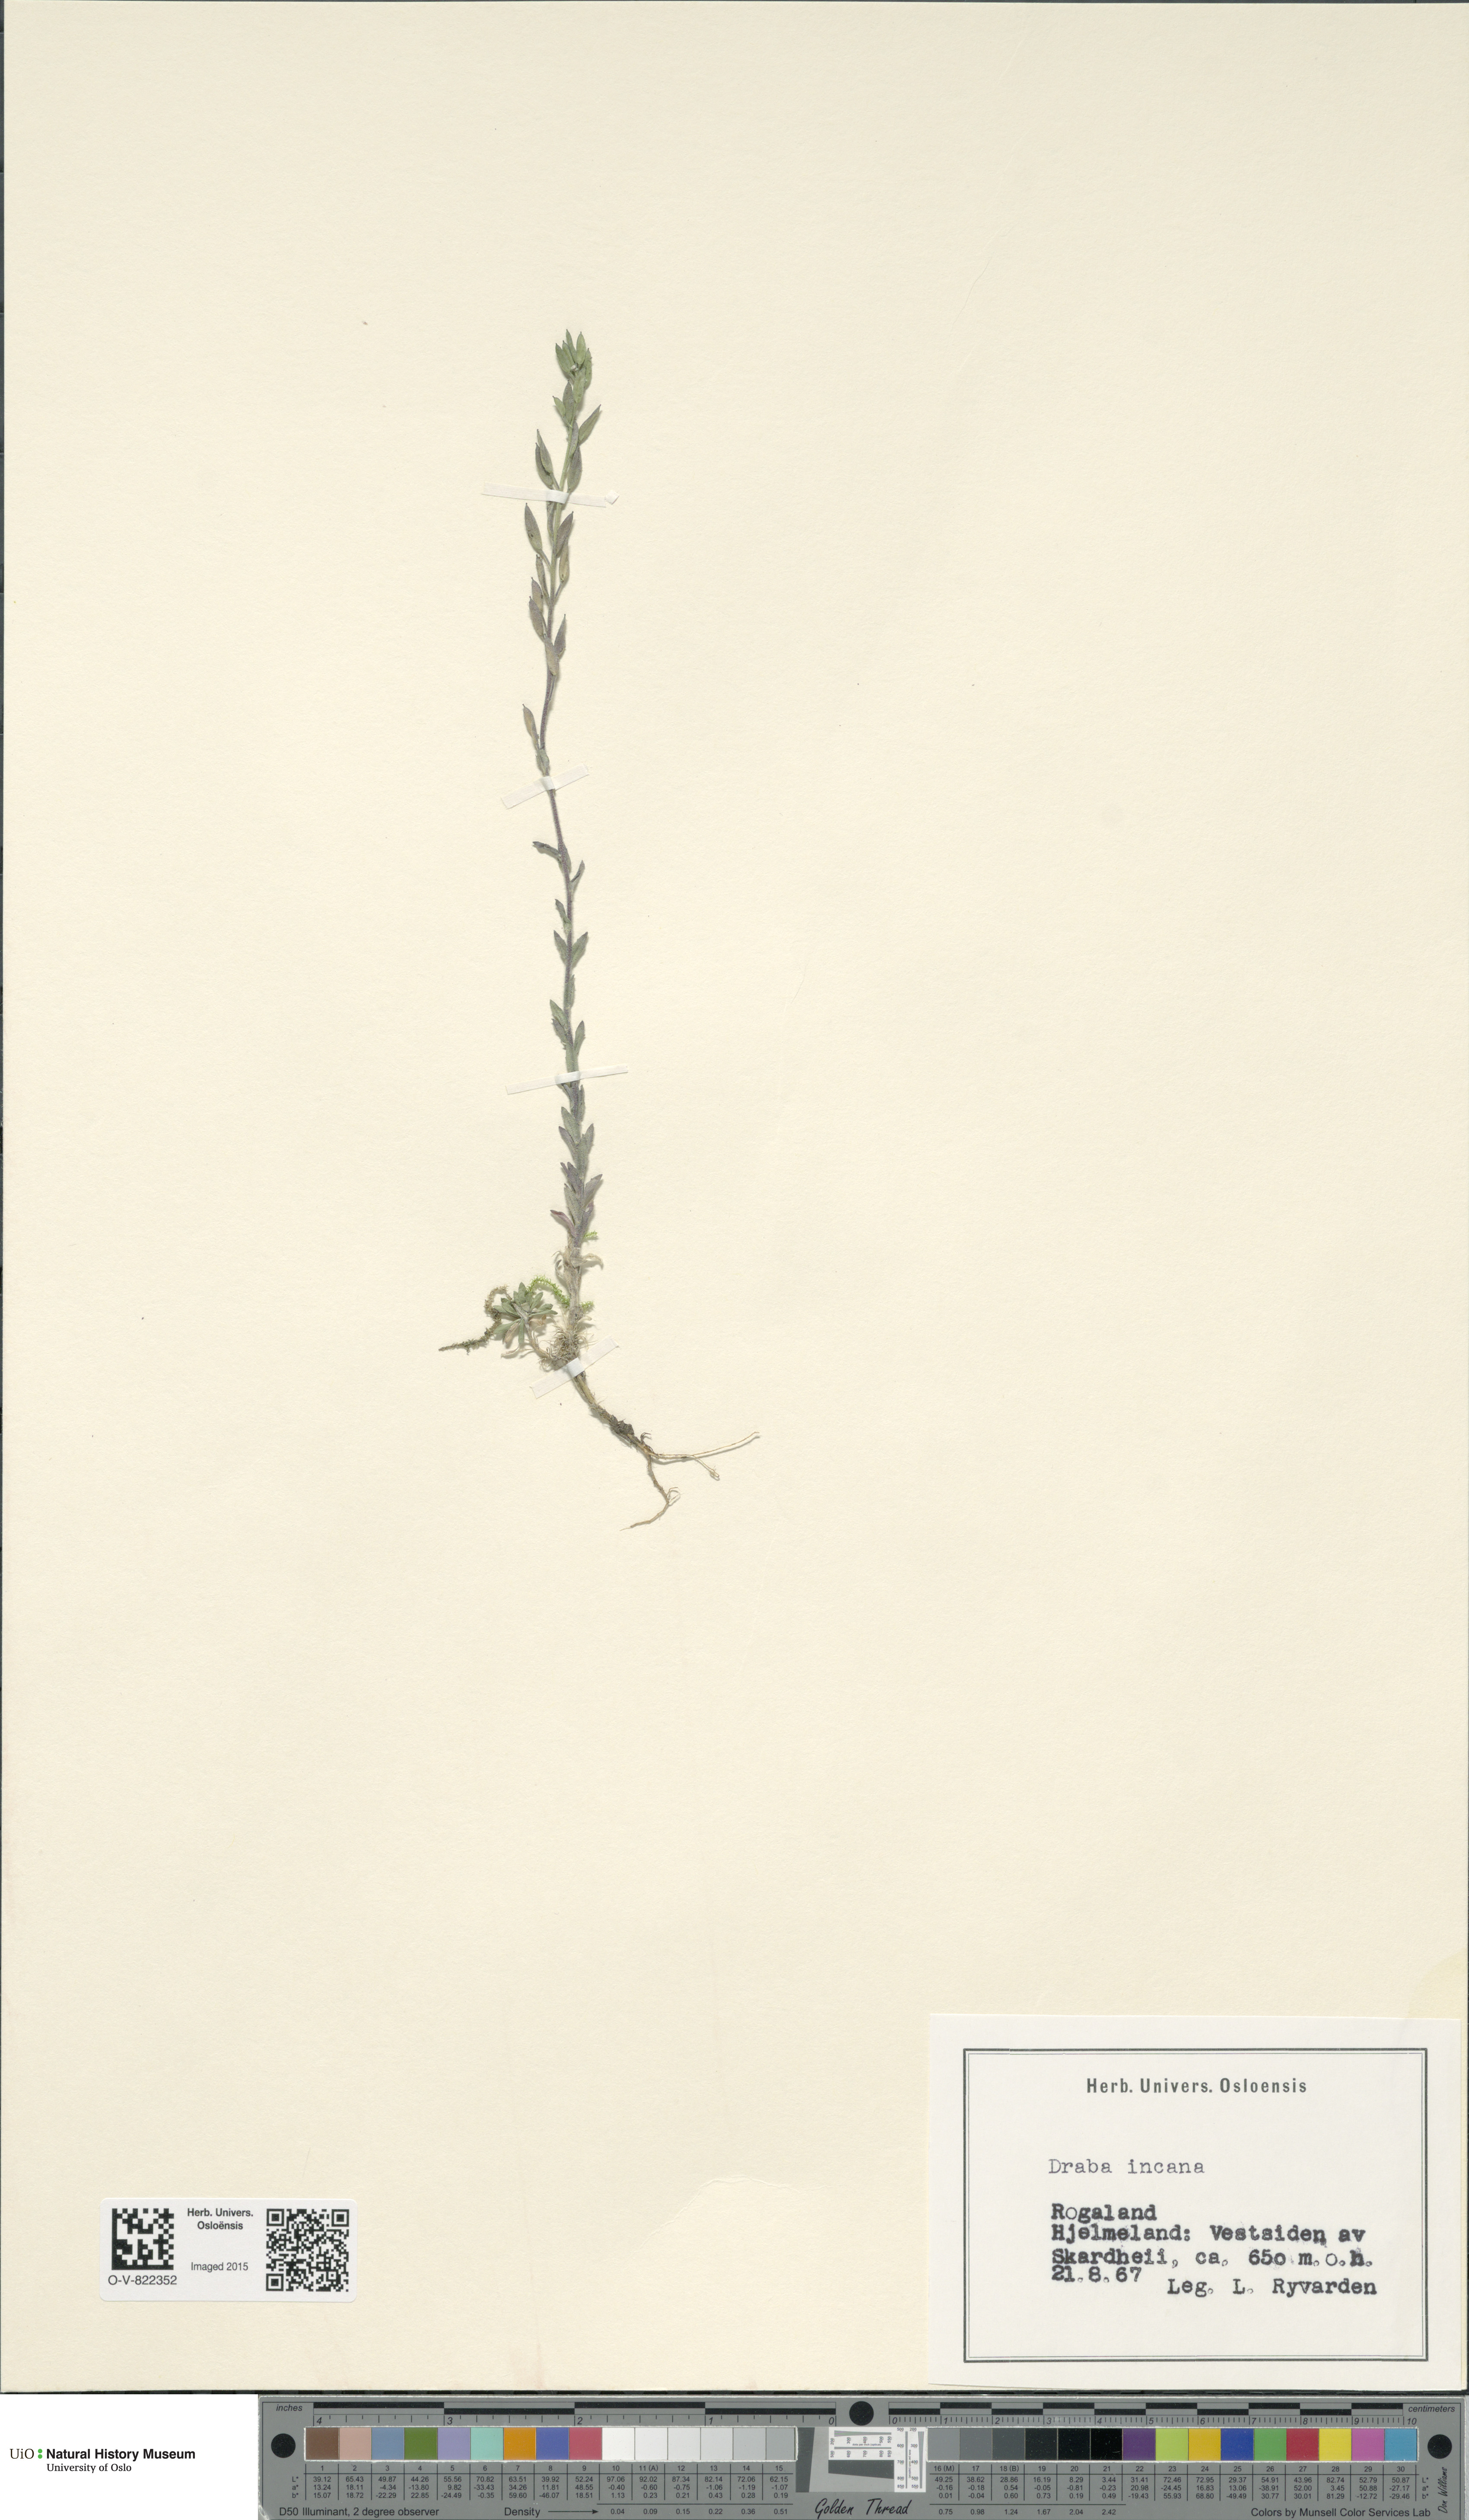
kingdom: Plantae
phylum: Tracheophyta
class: Magnoliopsida
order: Brassicales
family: Brassicaceae
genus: Draba
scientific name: Draba incana
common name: Hoary whitlow-grass
